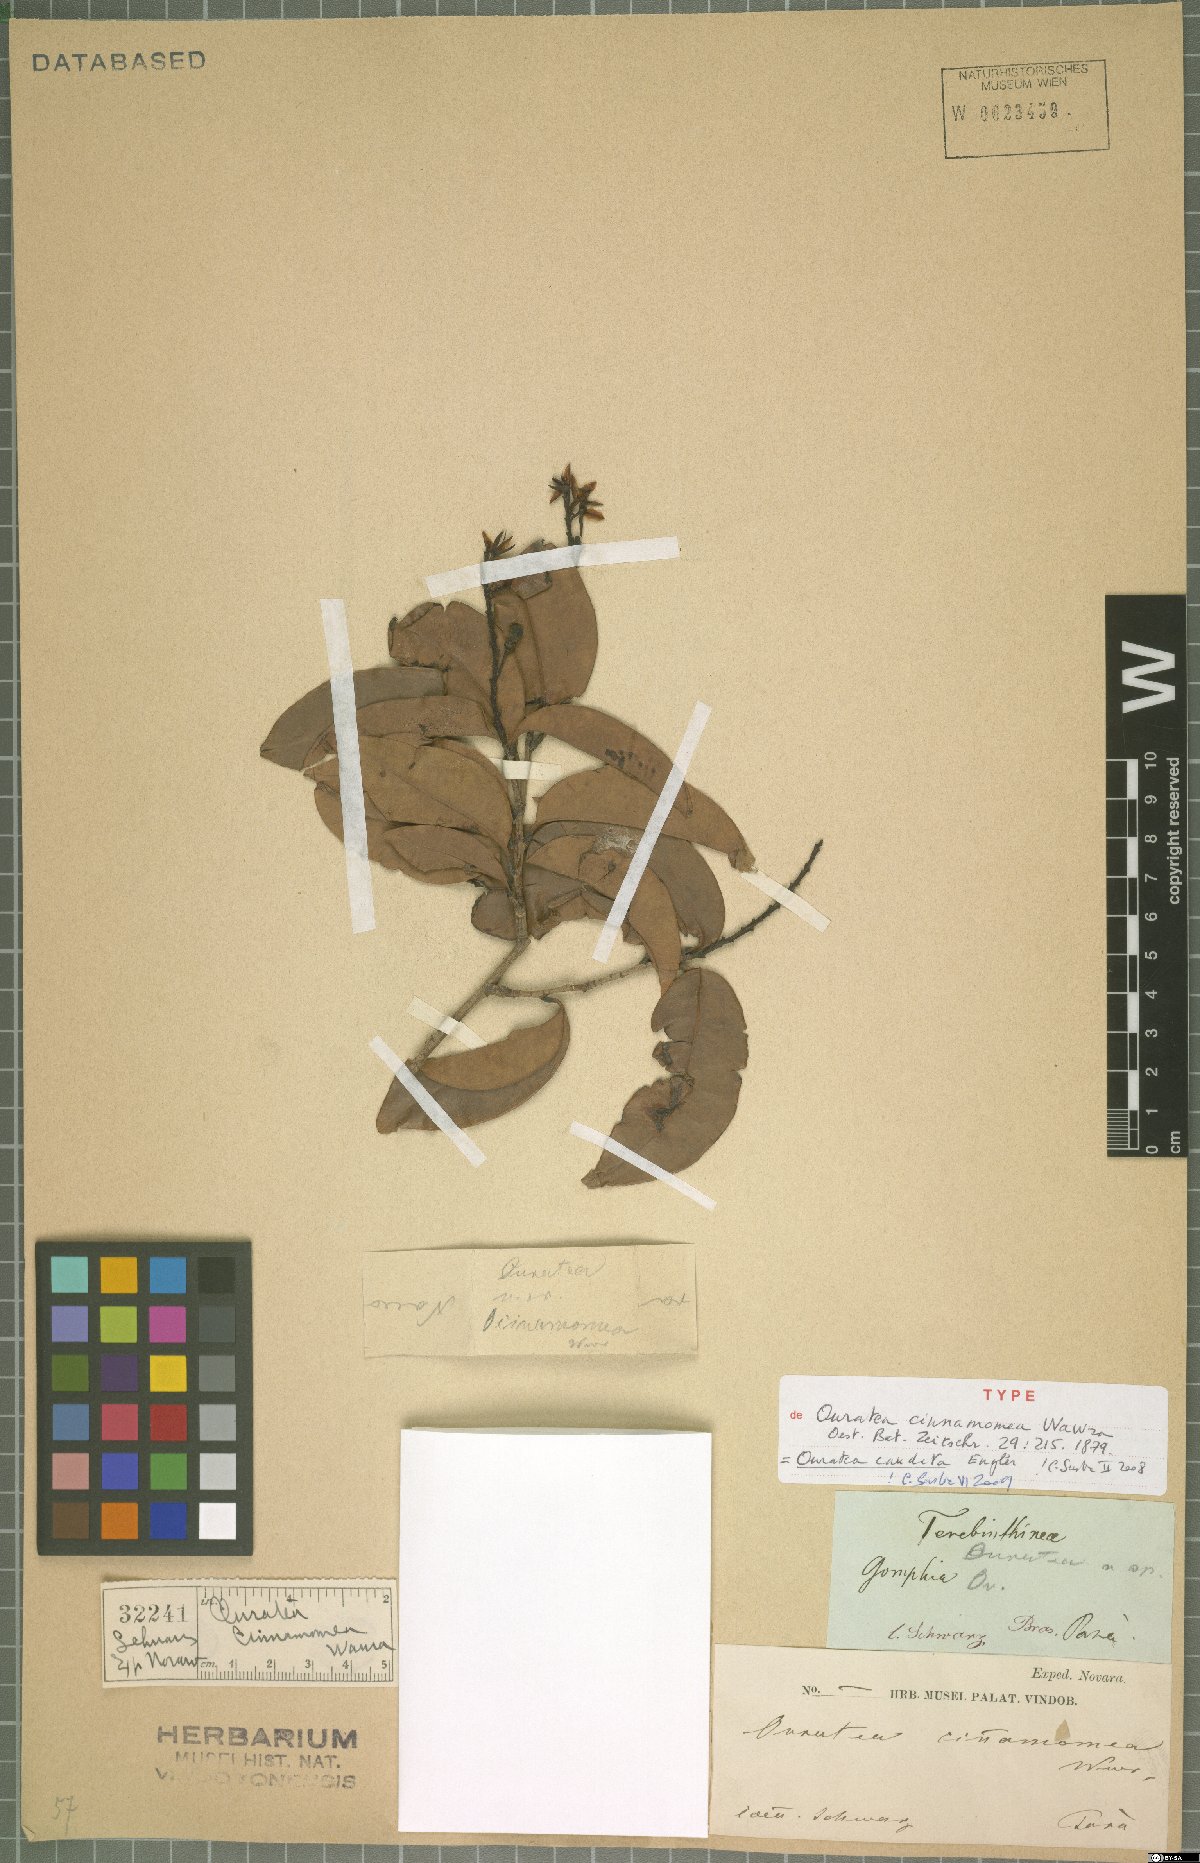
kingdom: Plantae
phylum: Tracheophyta
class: Magnoliopsida
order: Malpighiales
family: Ochnaceae
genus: Ouratea
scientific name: Ouratea caudata
